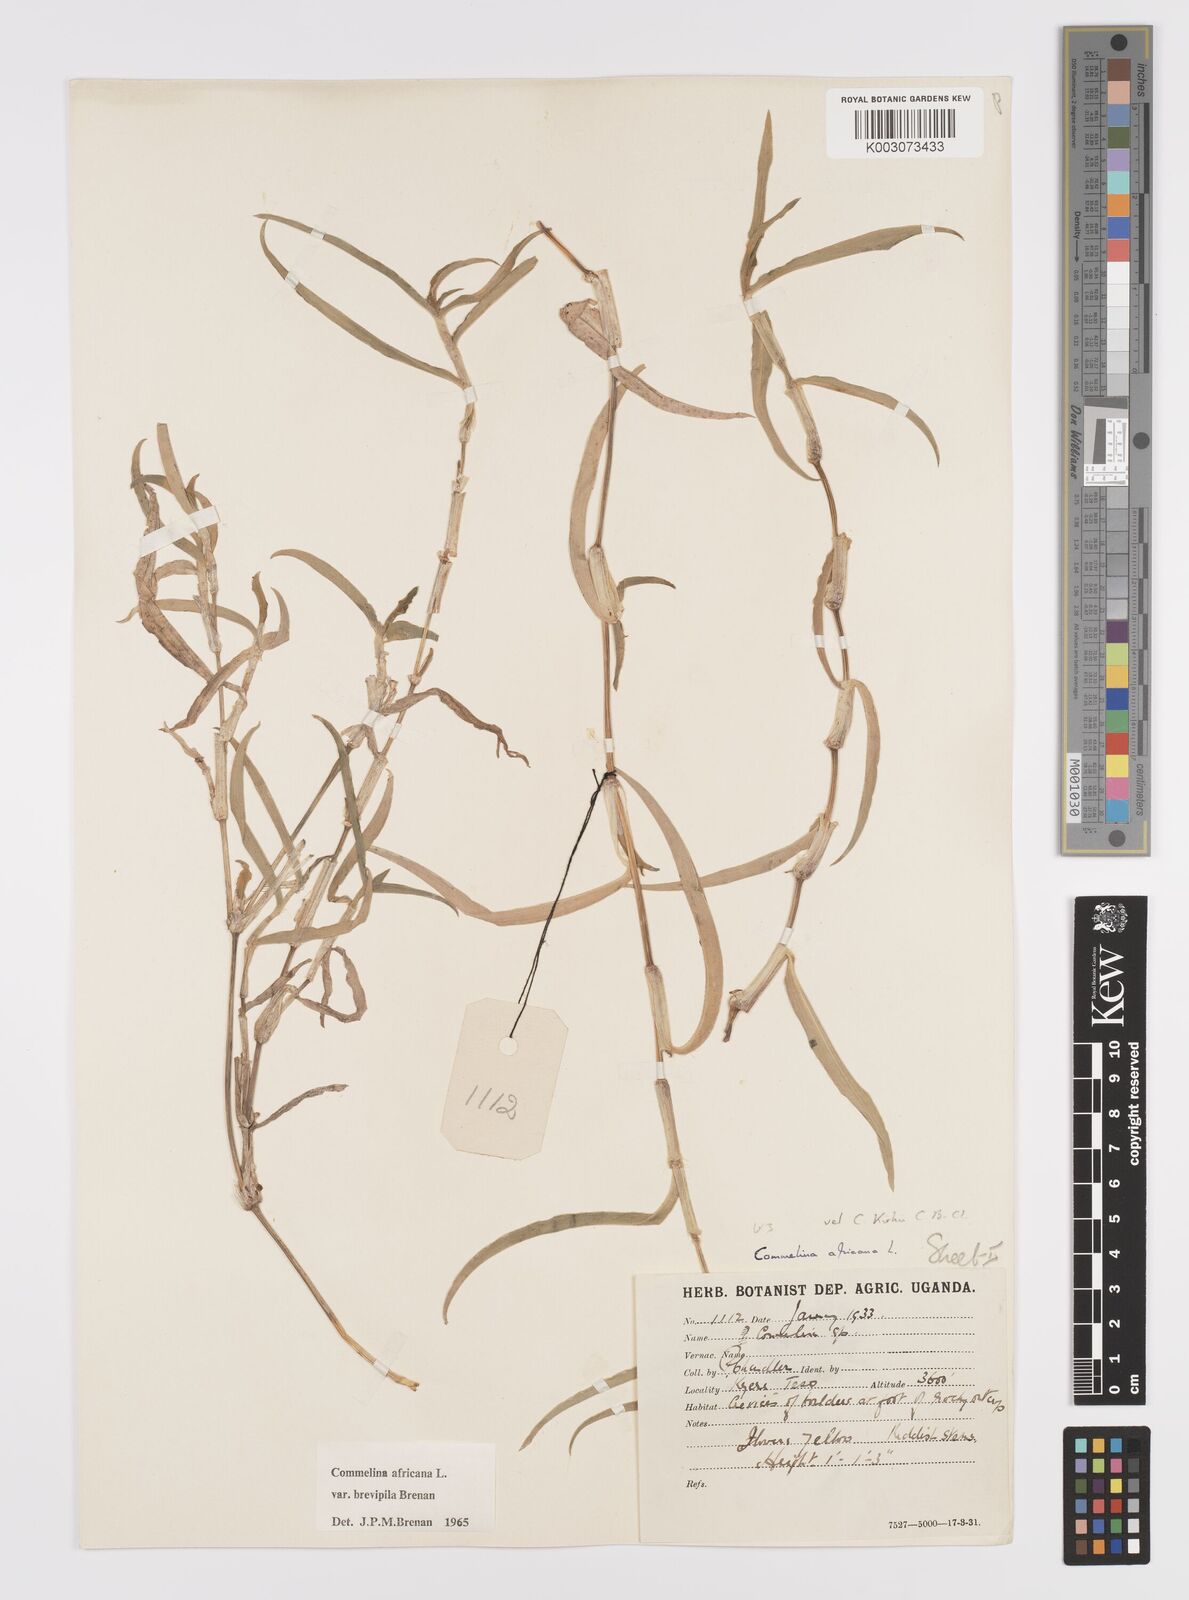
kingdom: Plantae
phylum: Tracheophyta
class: Liliopsida
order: Commelinales
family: Commelinaceae
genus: Commelina
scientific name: Commelina africana
